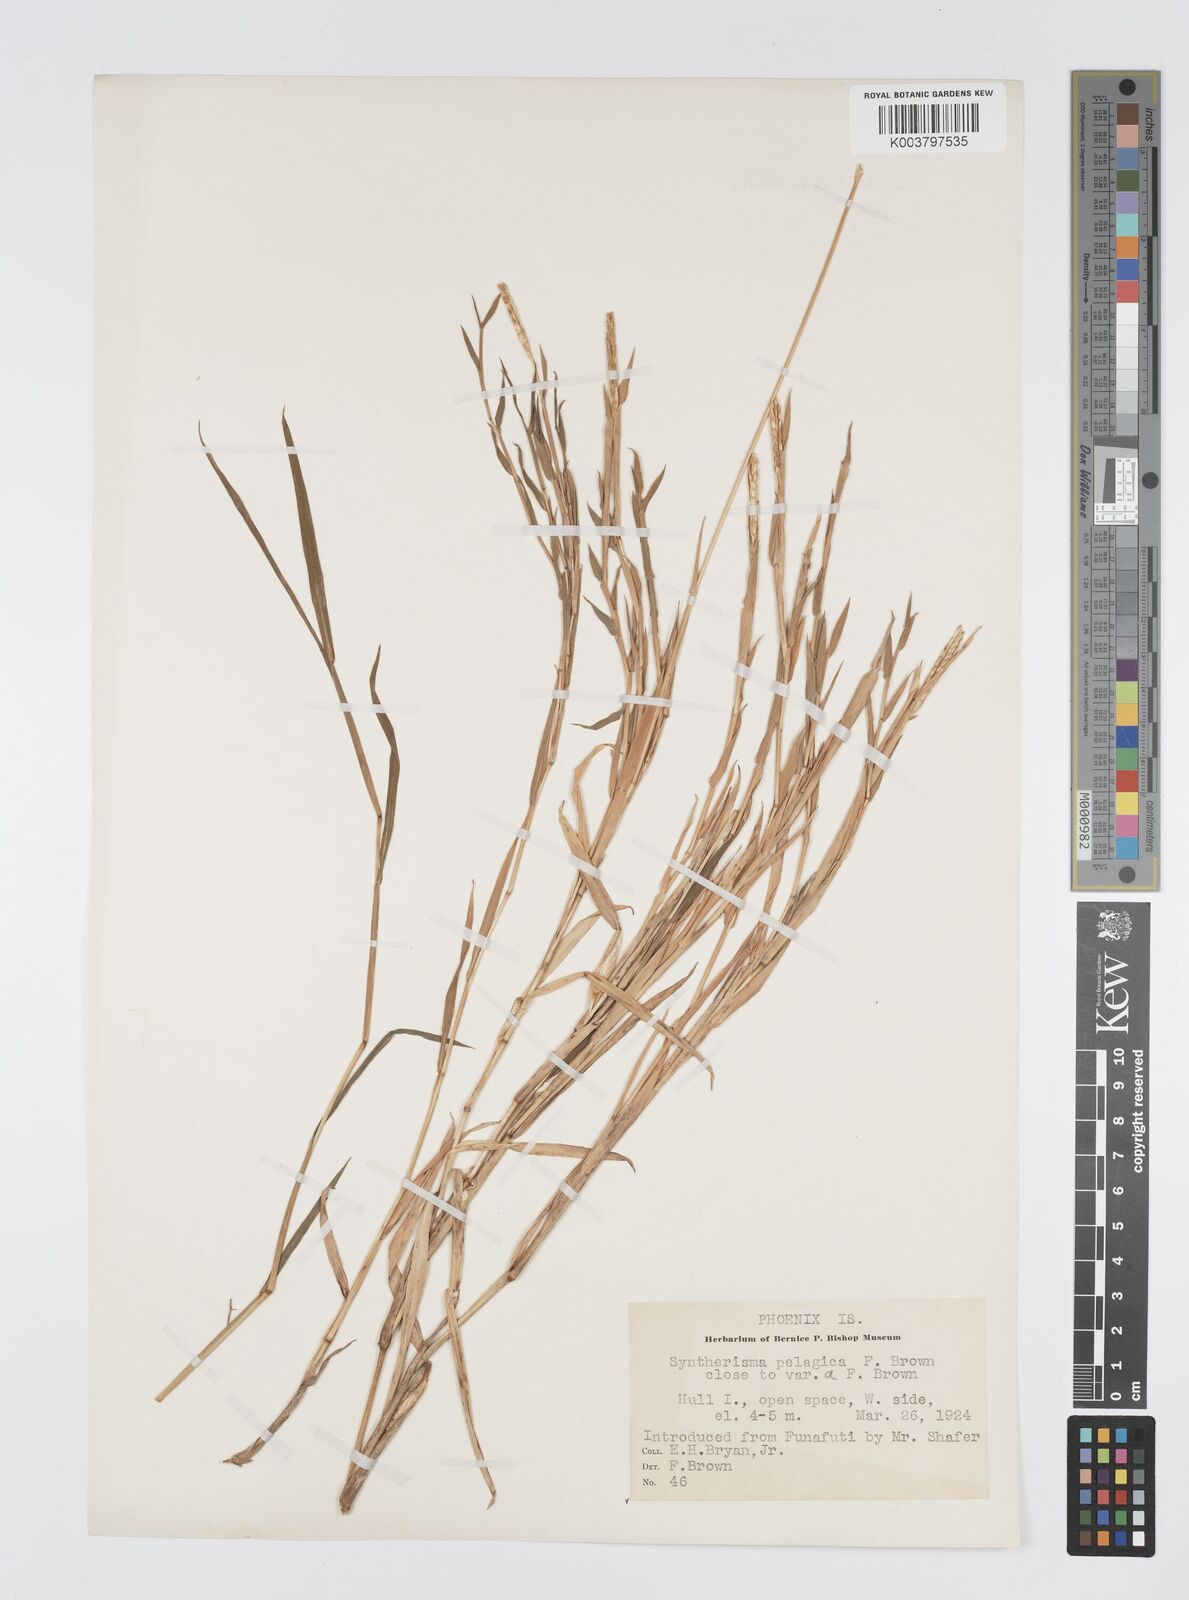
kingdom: Plantae
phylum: Tracheophyta
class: Liliopsida
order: Poales
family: Poaceae
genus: Digitaria
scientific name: Digitaria stenotaphrodes
